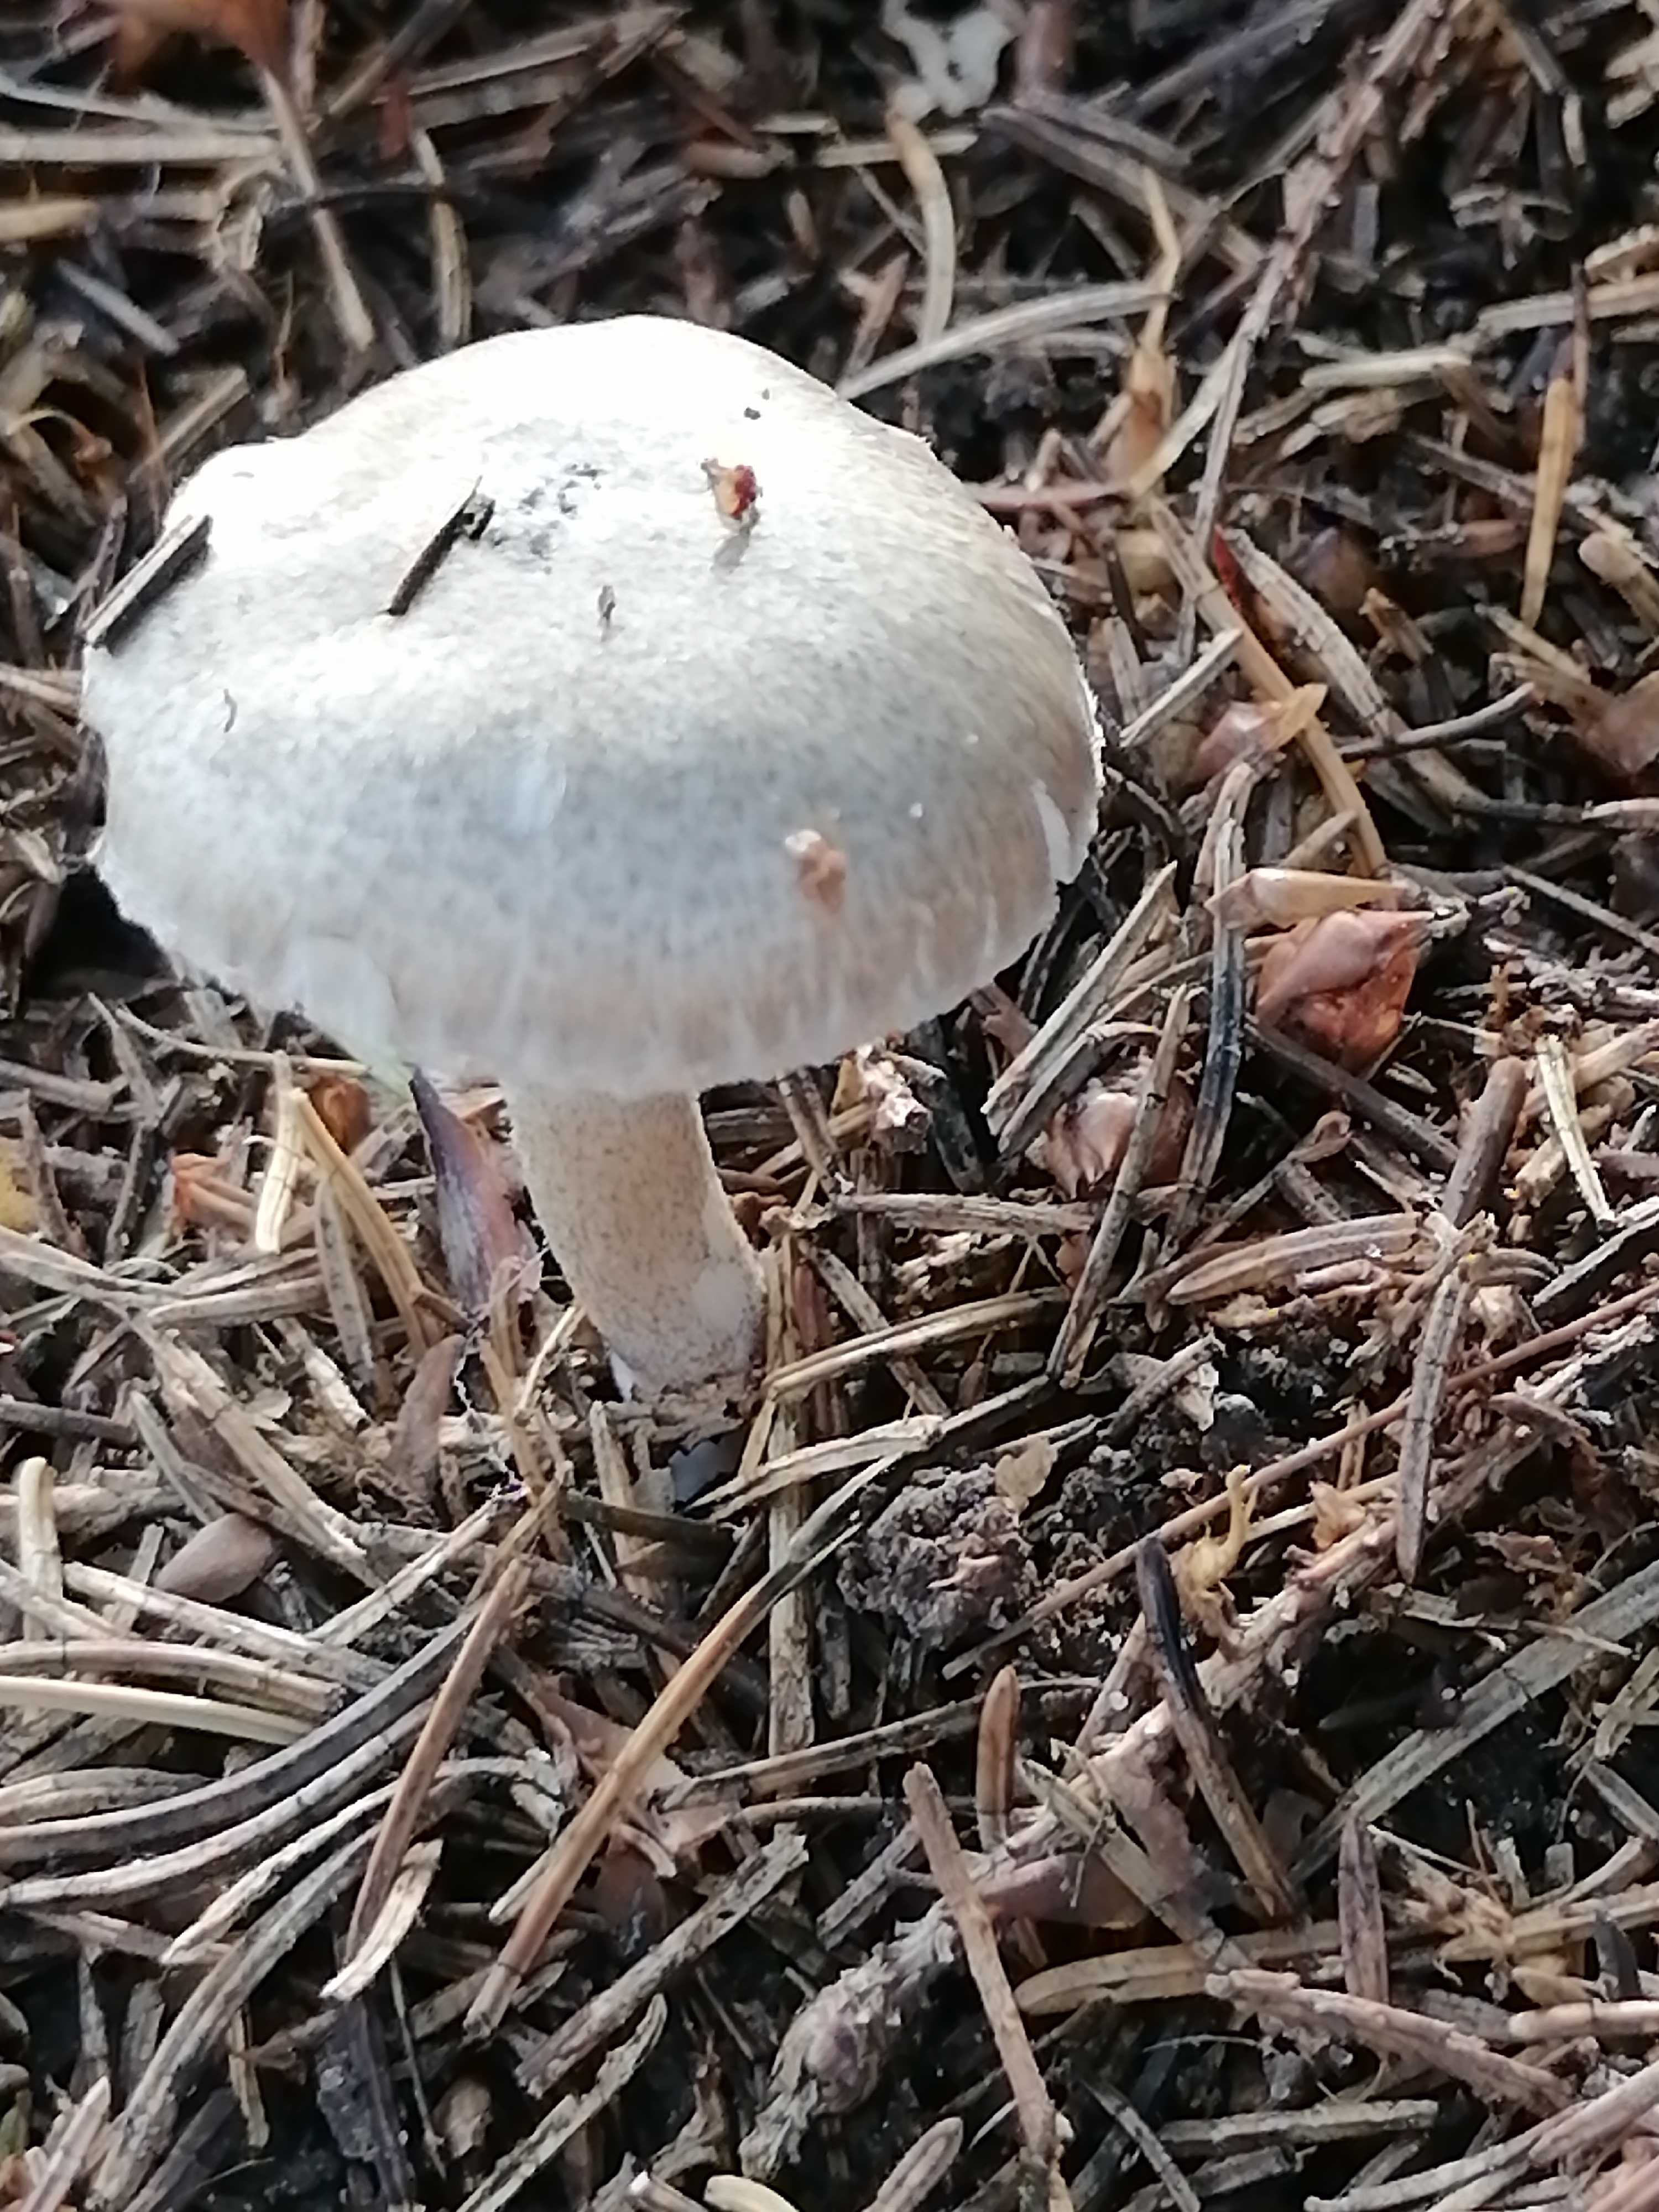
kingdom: Fungi
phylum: Basidiomycota
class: Agaricomycetes
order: Agaricales
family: Hygrophoraceae
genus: Hygrophorus
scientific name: Hygrophorus pustulatus
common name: mørkprikket sneglehat
